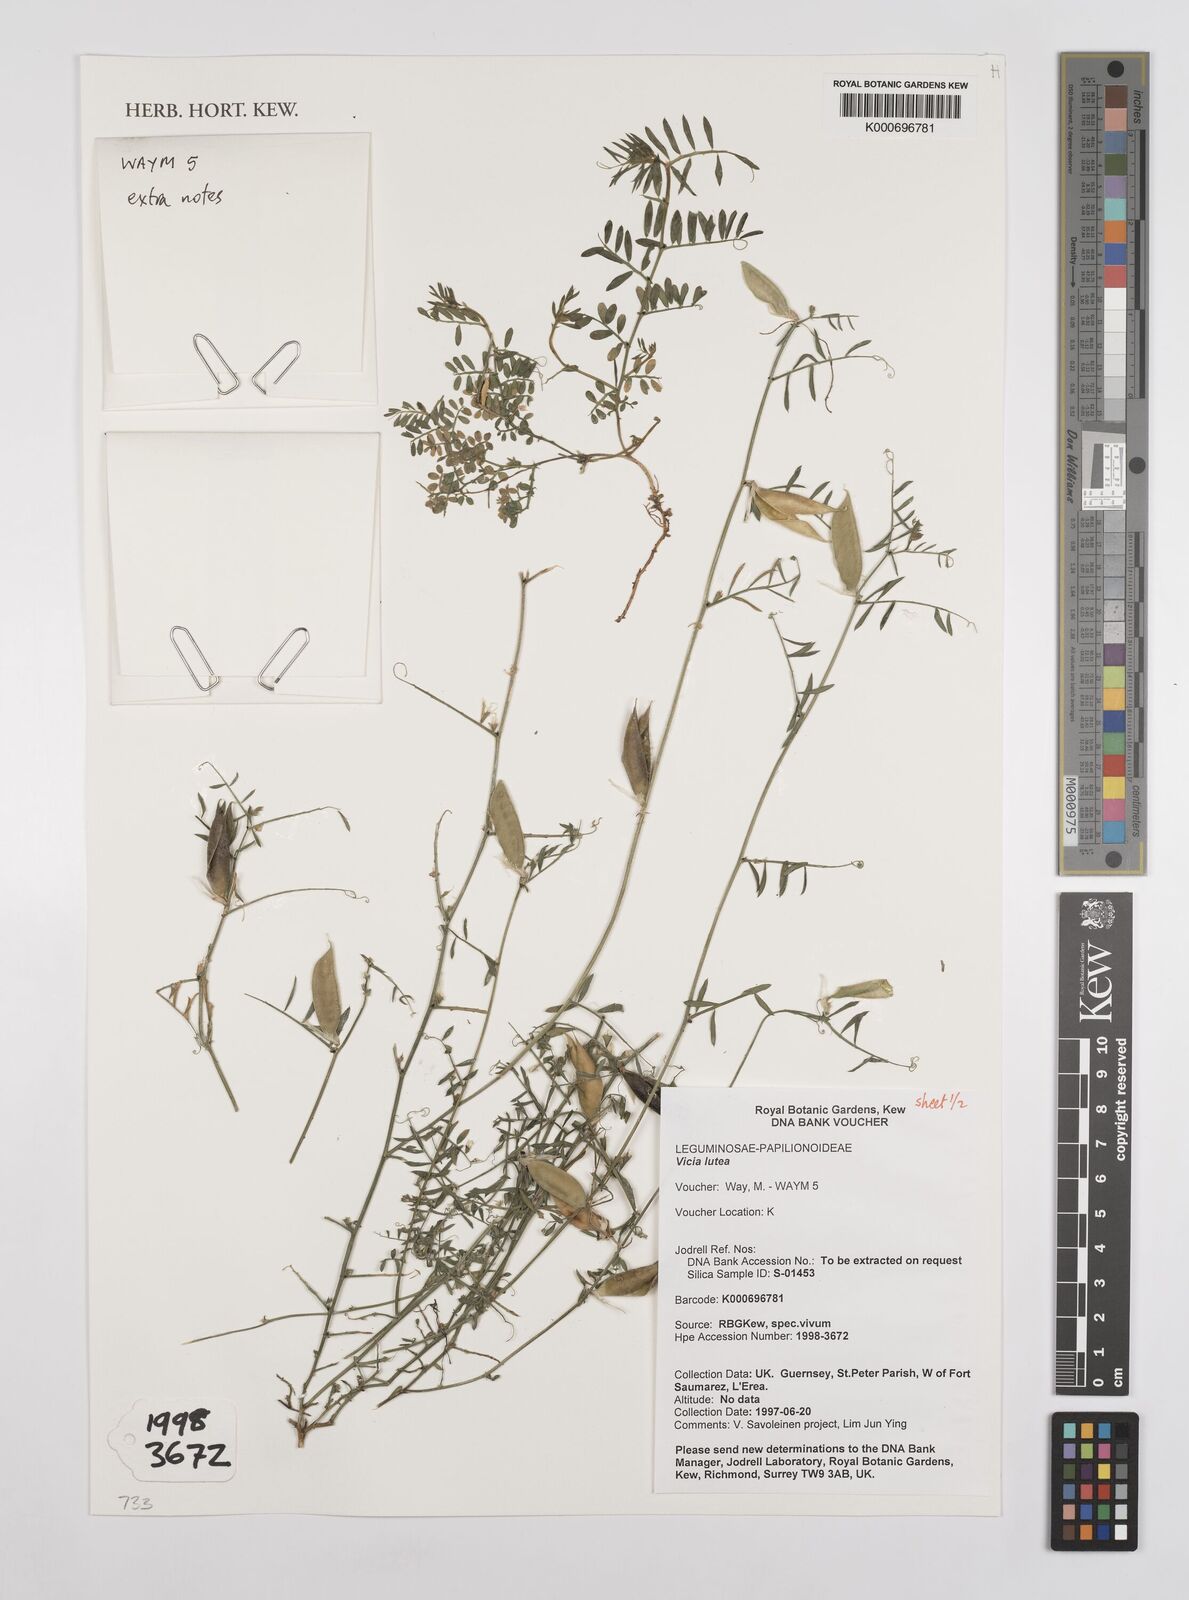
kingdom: Plantae
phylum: Tracheophyta
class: Magnoliopsida
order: Fabales
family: Fabaceae
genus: Vicia
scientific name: Vicia lutea
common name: Smooth yellow vetch
